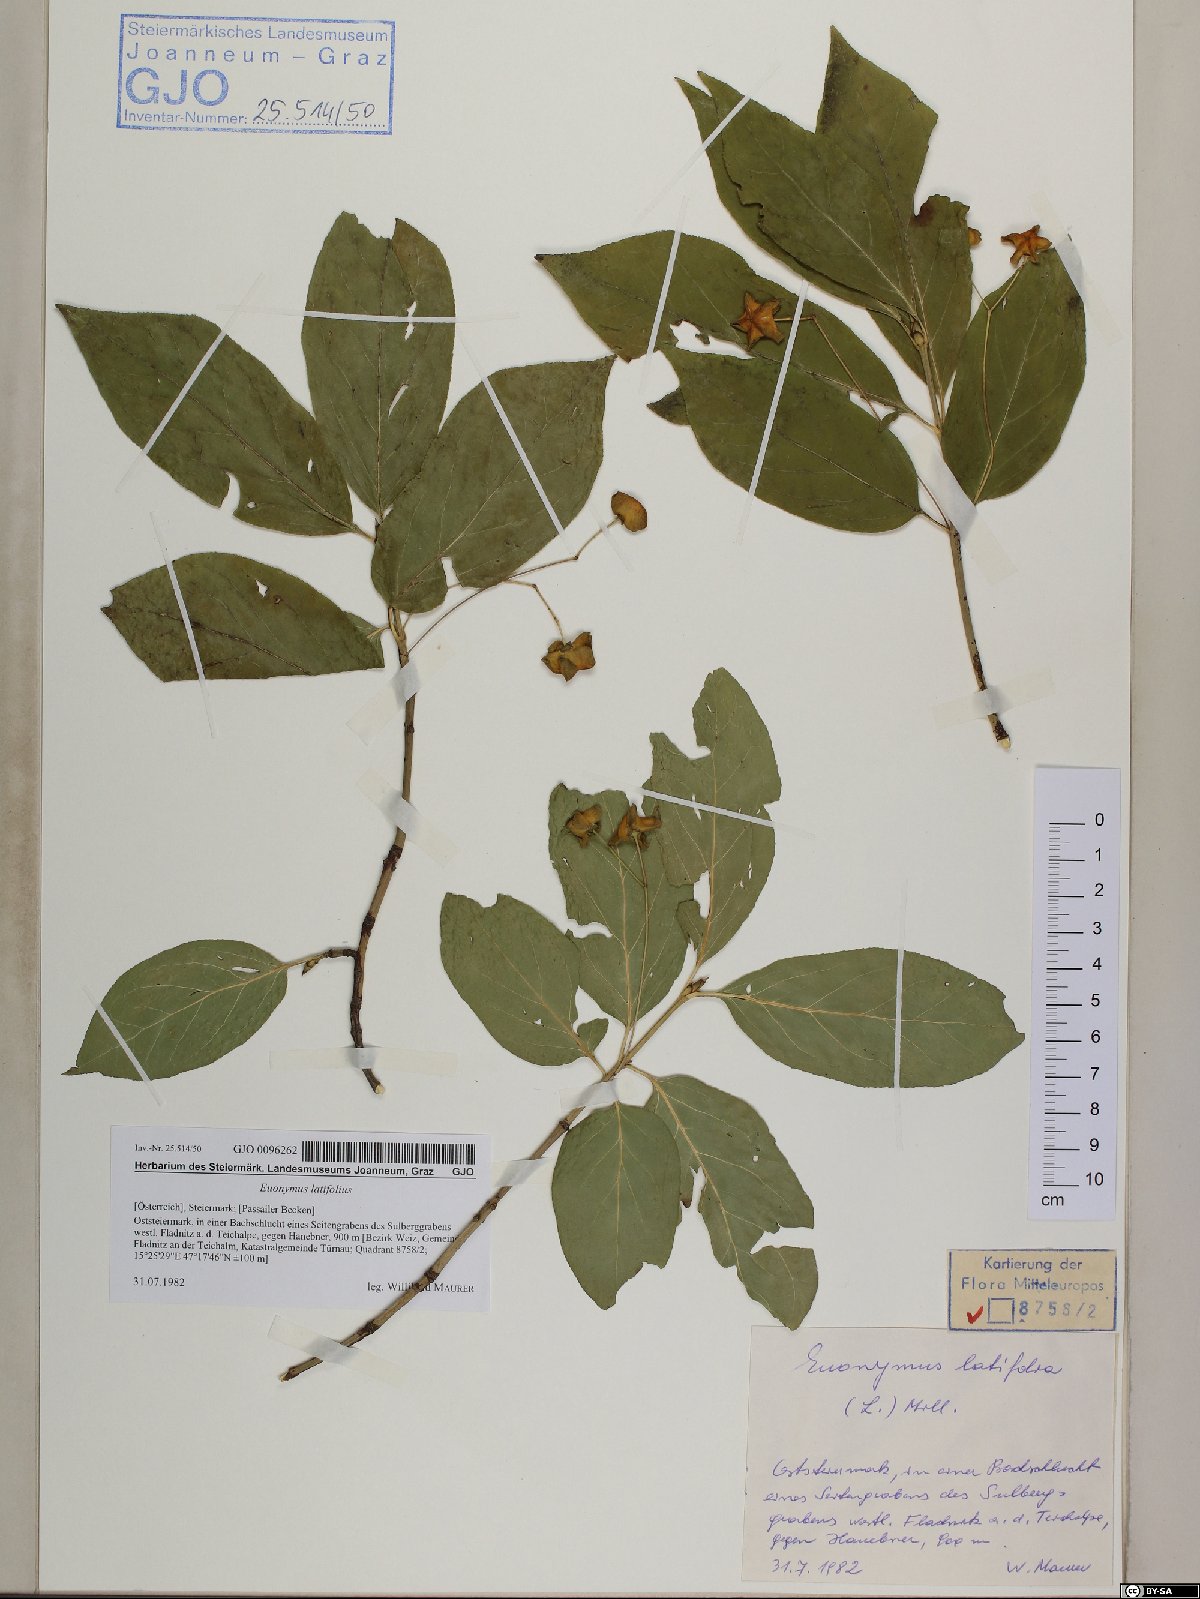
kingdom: Plantae
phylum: Tracheophyta
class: Magnoliopsida
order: Celastrales
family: Celastraceae
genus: Euonymus
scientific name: Euonymus latifolius
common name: Large-leaved spindle
